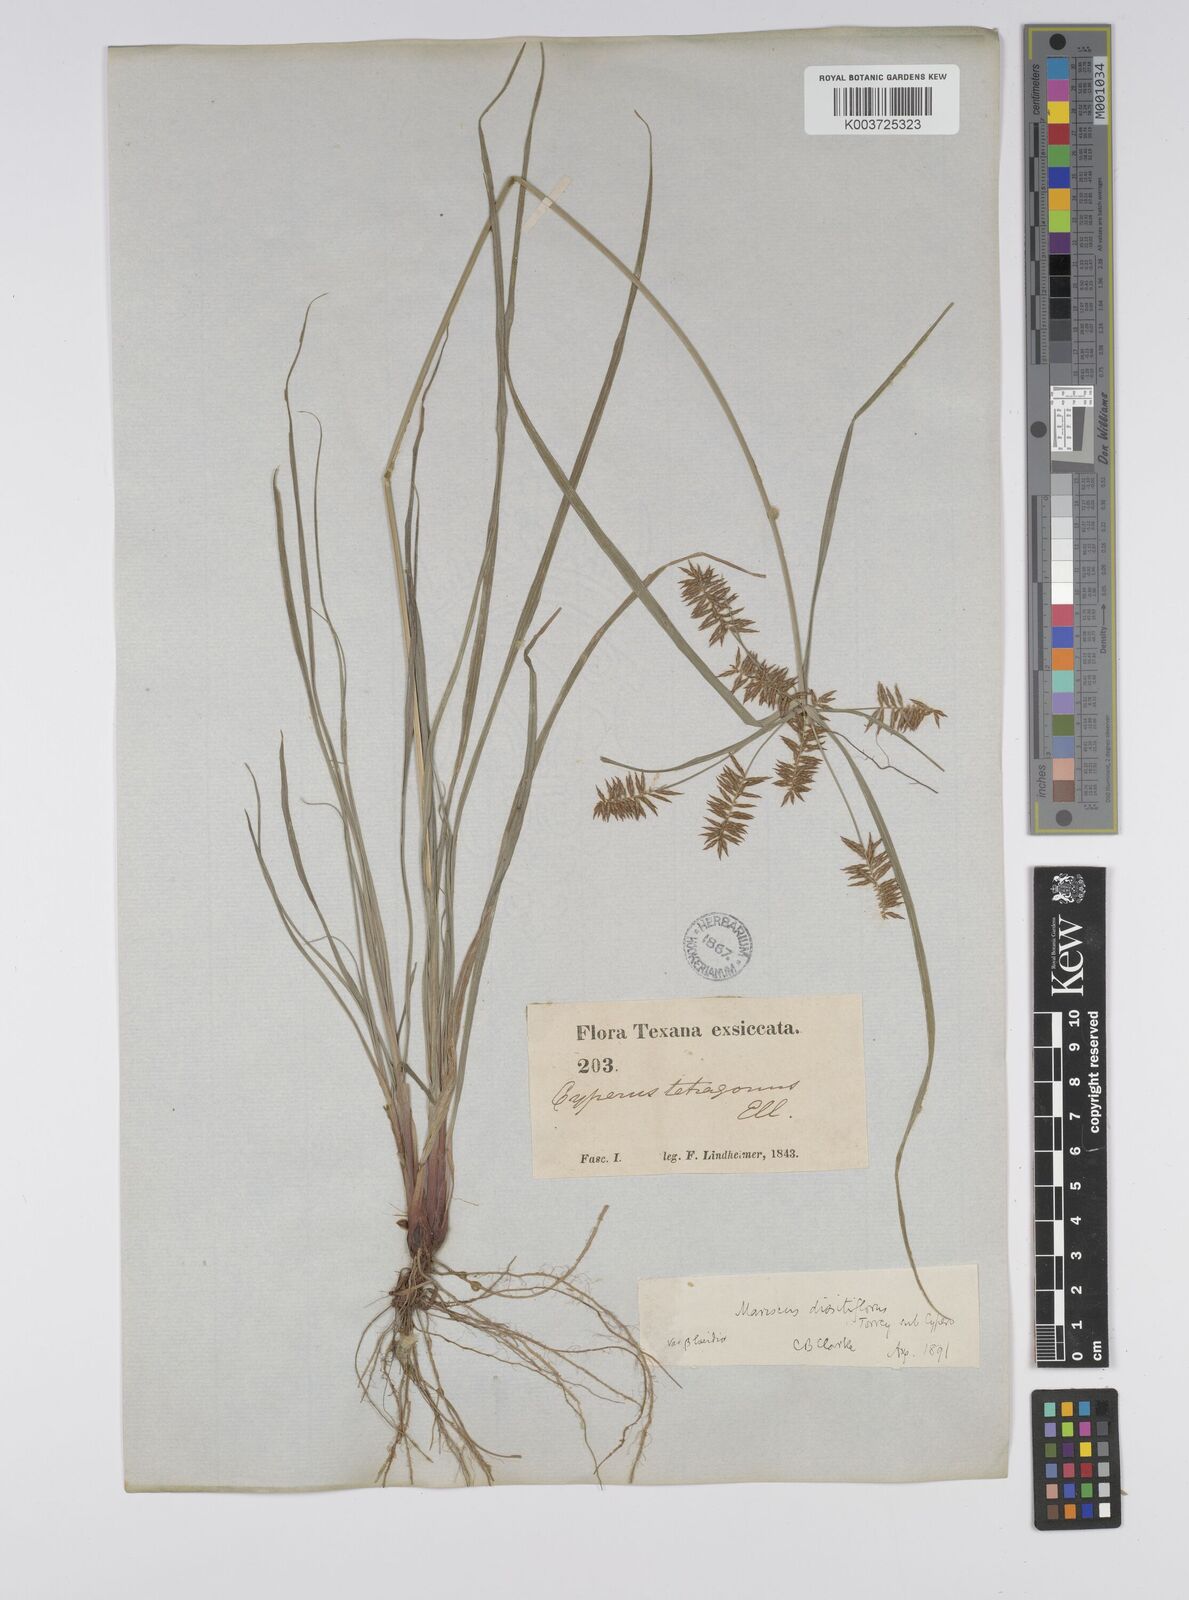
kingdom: Plantae
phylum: Tracheophyta
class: Liliopsida
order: Poales
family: Cyperaceae
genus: Cyperus
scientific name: Cyperus
